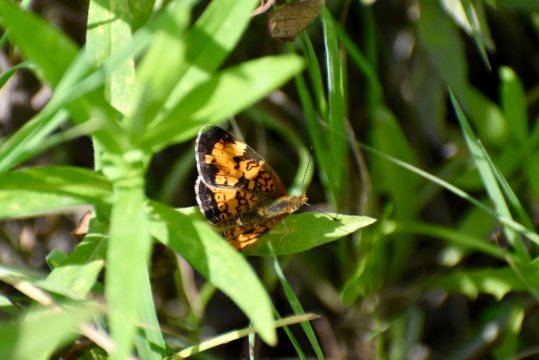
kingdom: Animalia
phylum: Arthropoda
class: Insecta
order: Lepidoptera
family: Nymphalidae
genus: Phyciodes
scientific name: Phyciodes tharos
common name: Pearl Crescent
